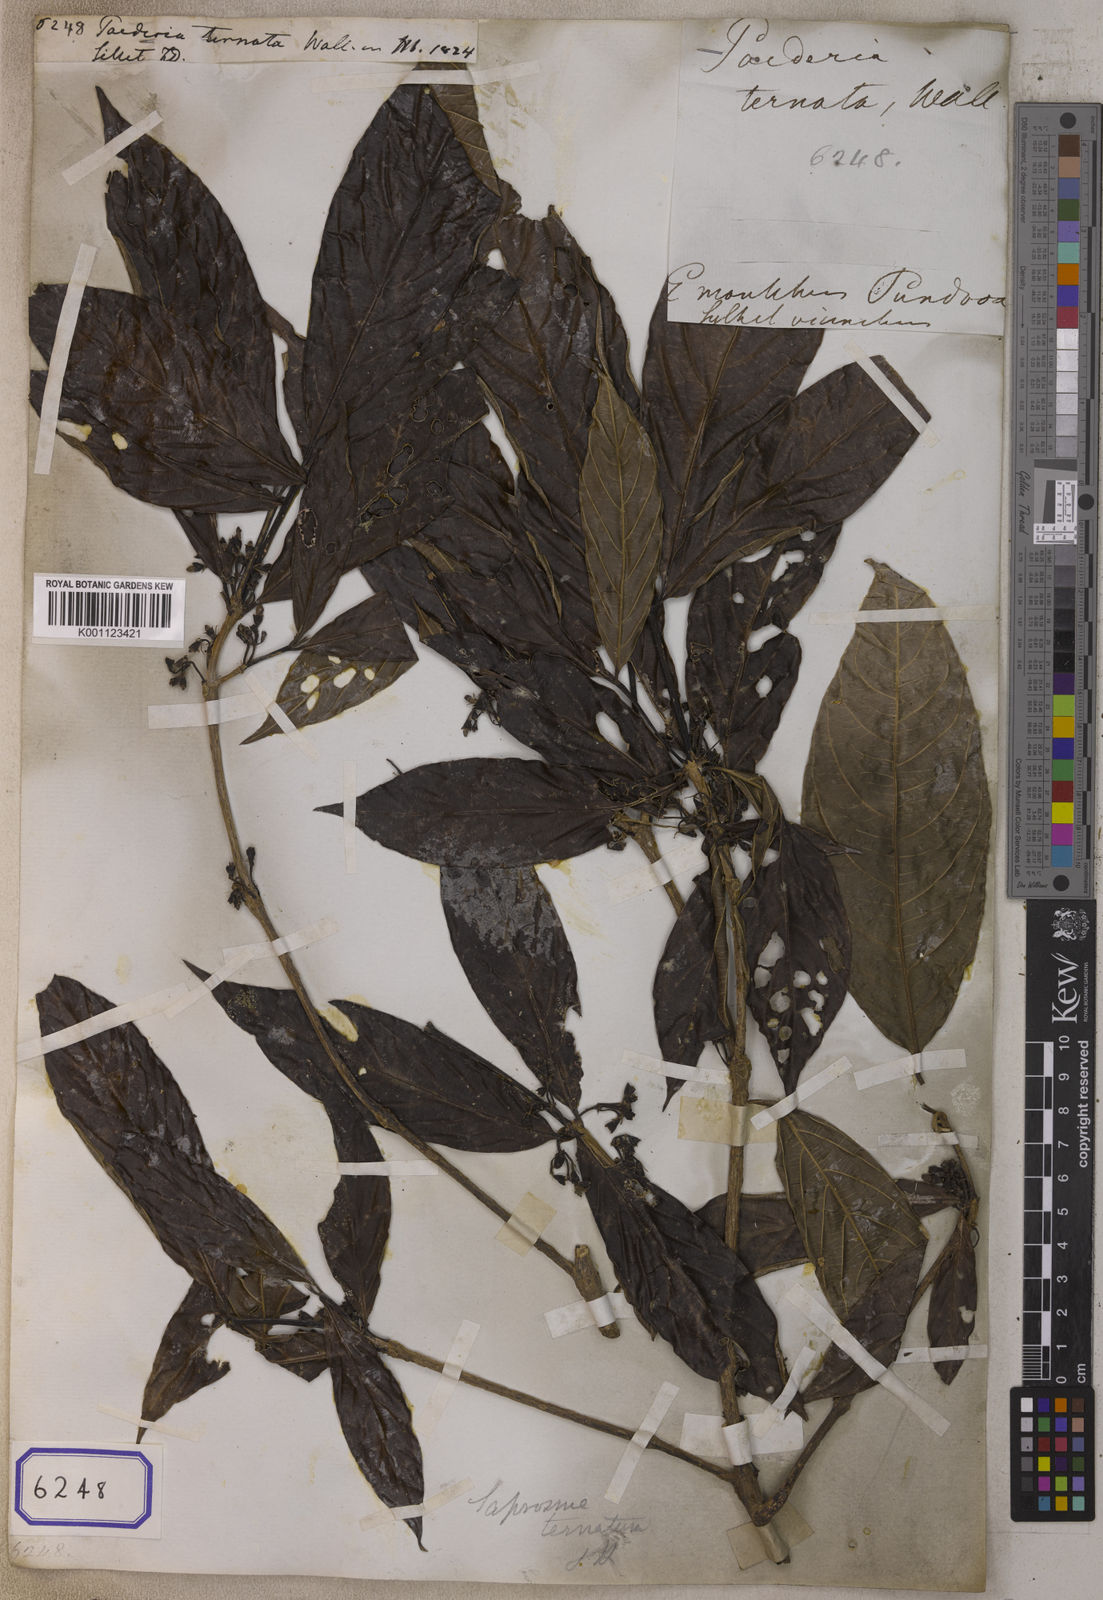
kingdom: Plantae
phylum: Tracheophyta
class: Magnoliopsida
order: Gentianales
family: Rubiaceae
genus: Saprosma
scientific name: Saprosma ternata
